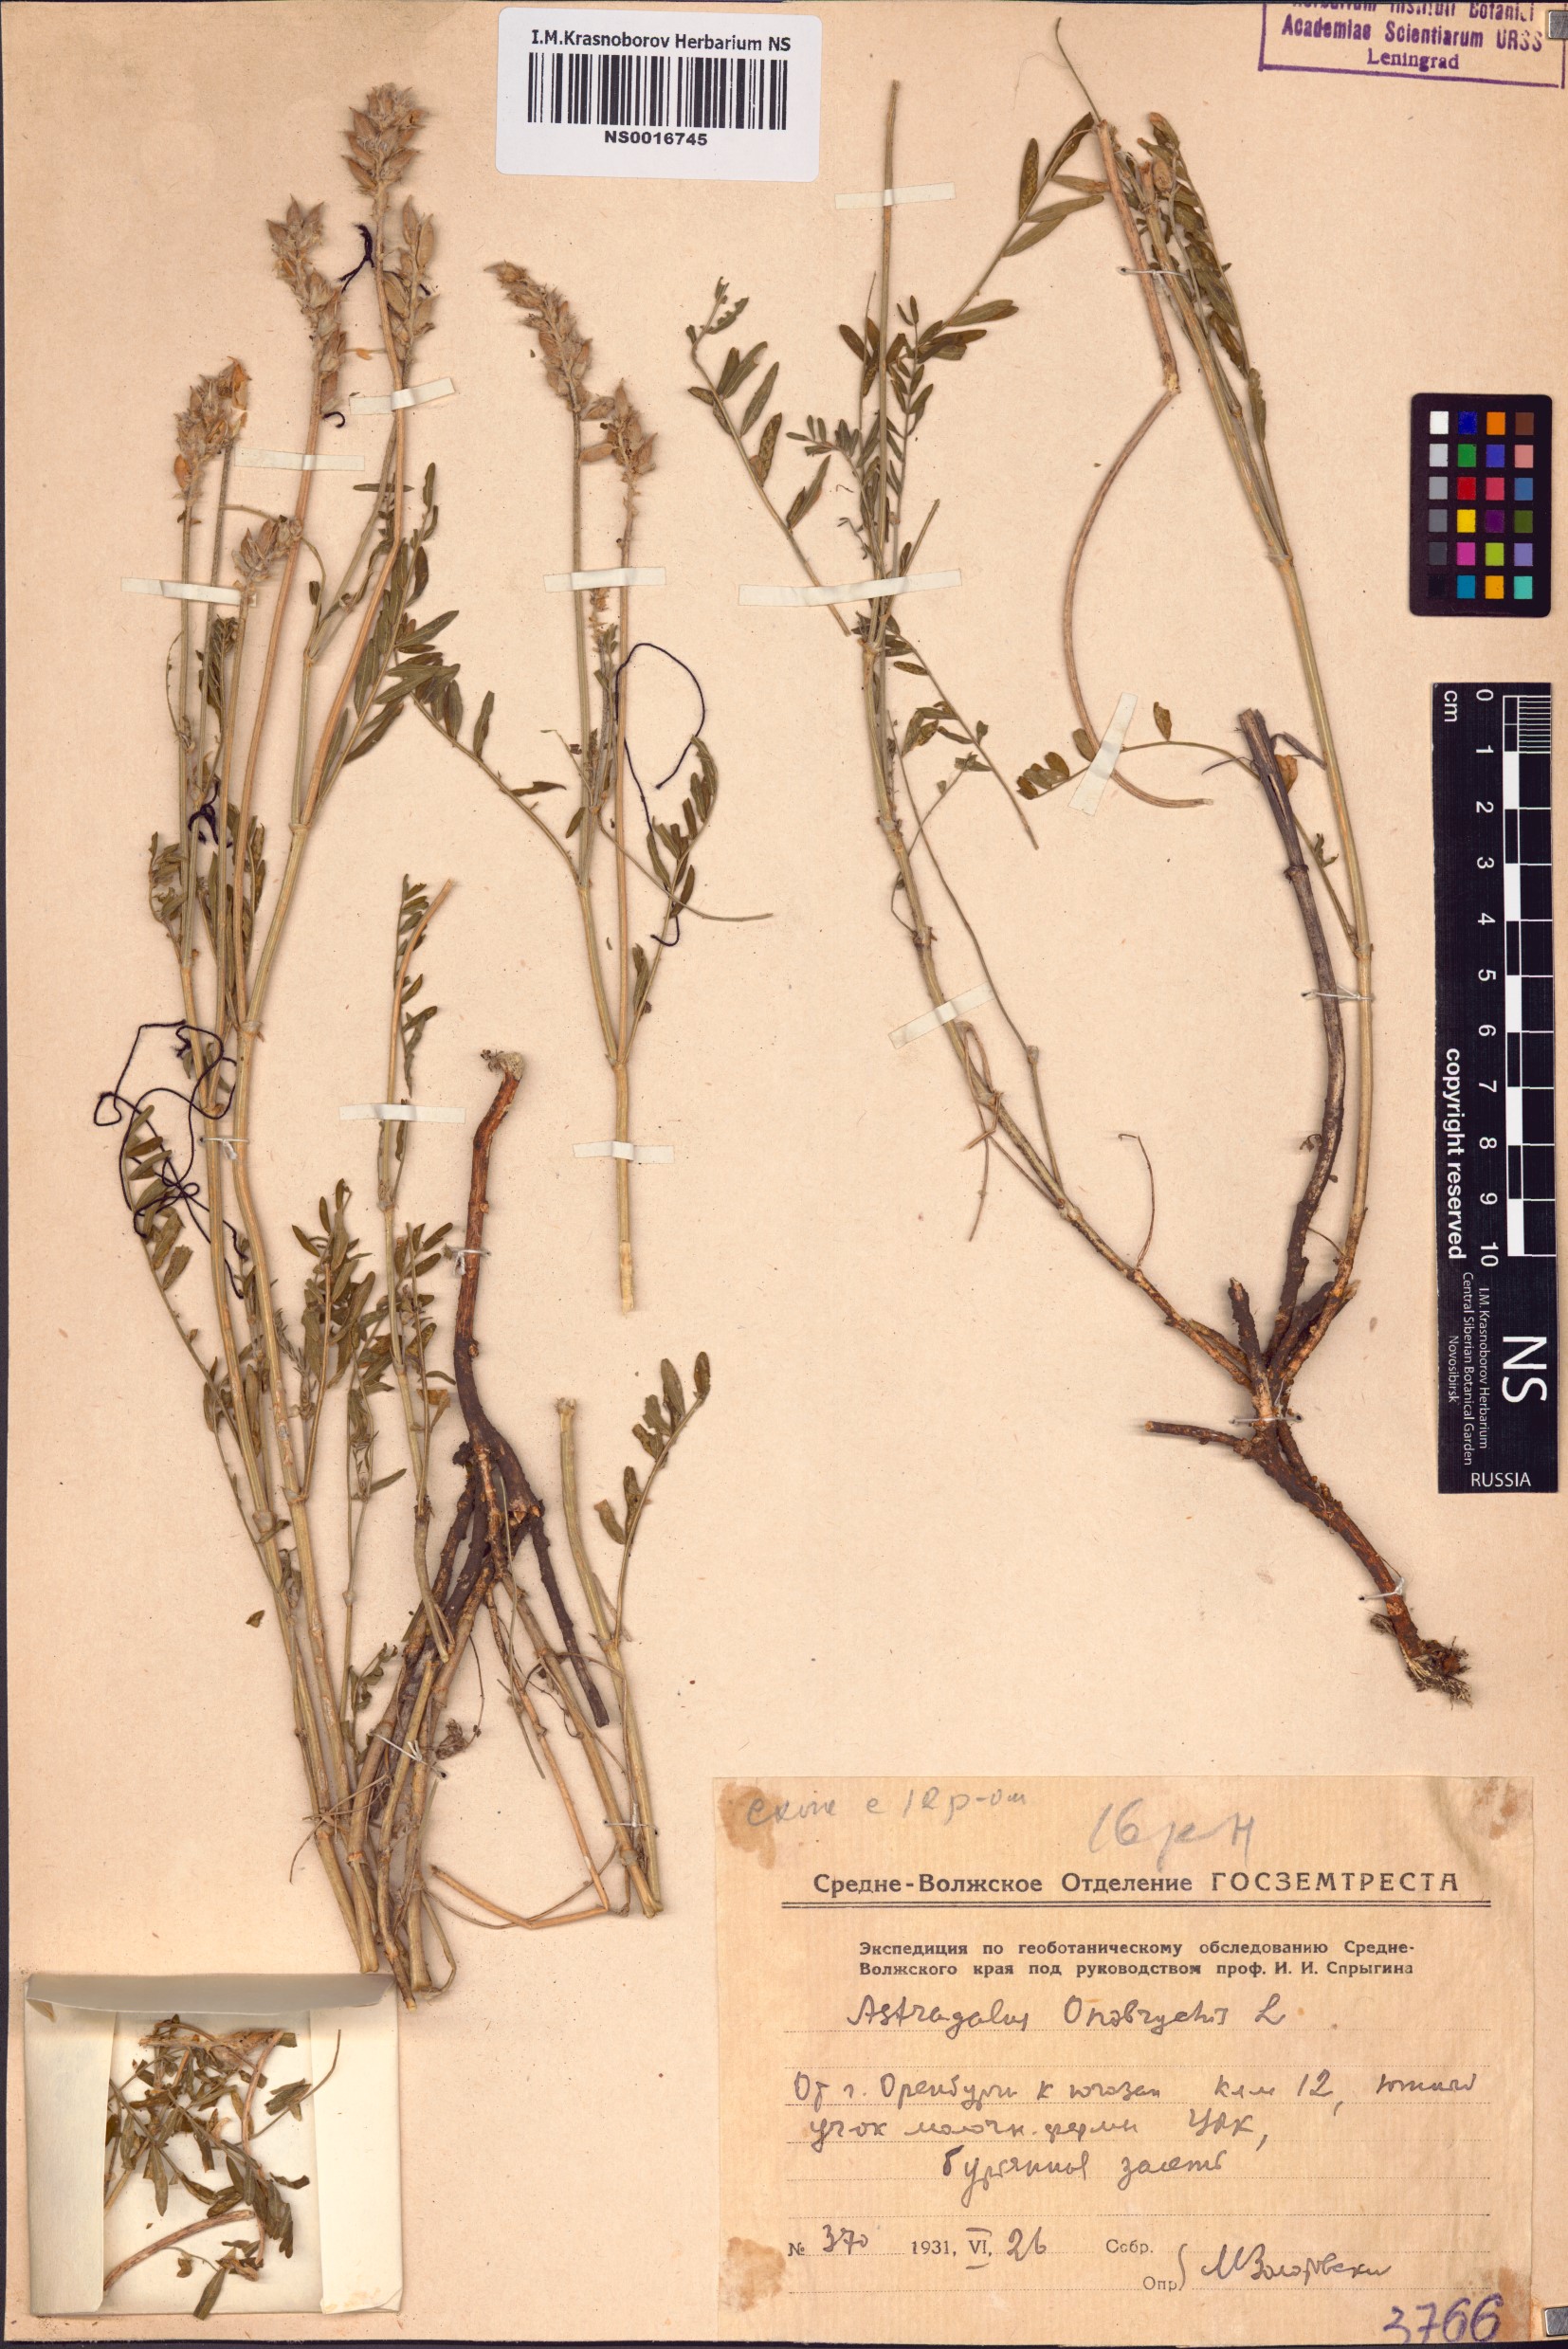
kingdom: Plantae
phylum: Tracheophyta
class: Magnoliopsida
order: Fabales
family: Fabaceae
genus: Astragalus
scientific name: Astragalus onobrychis
